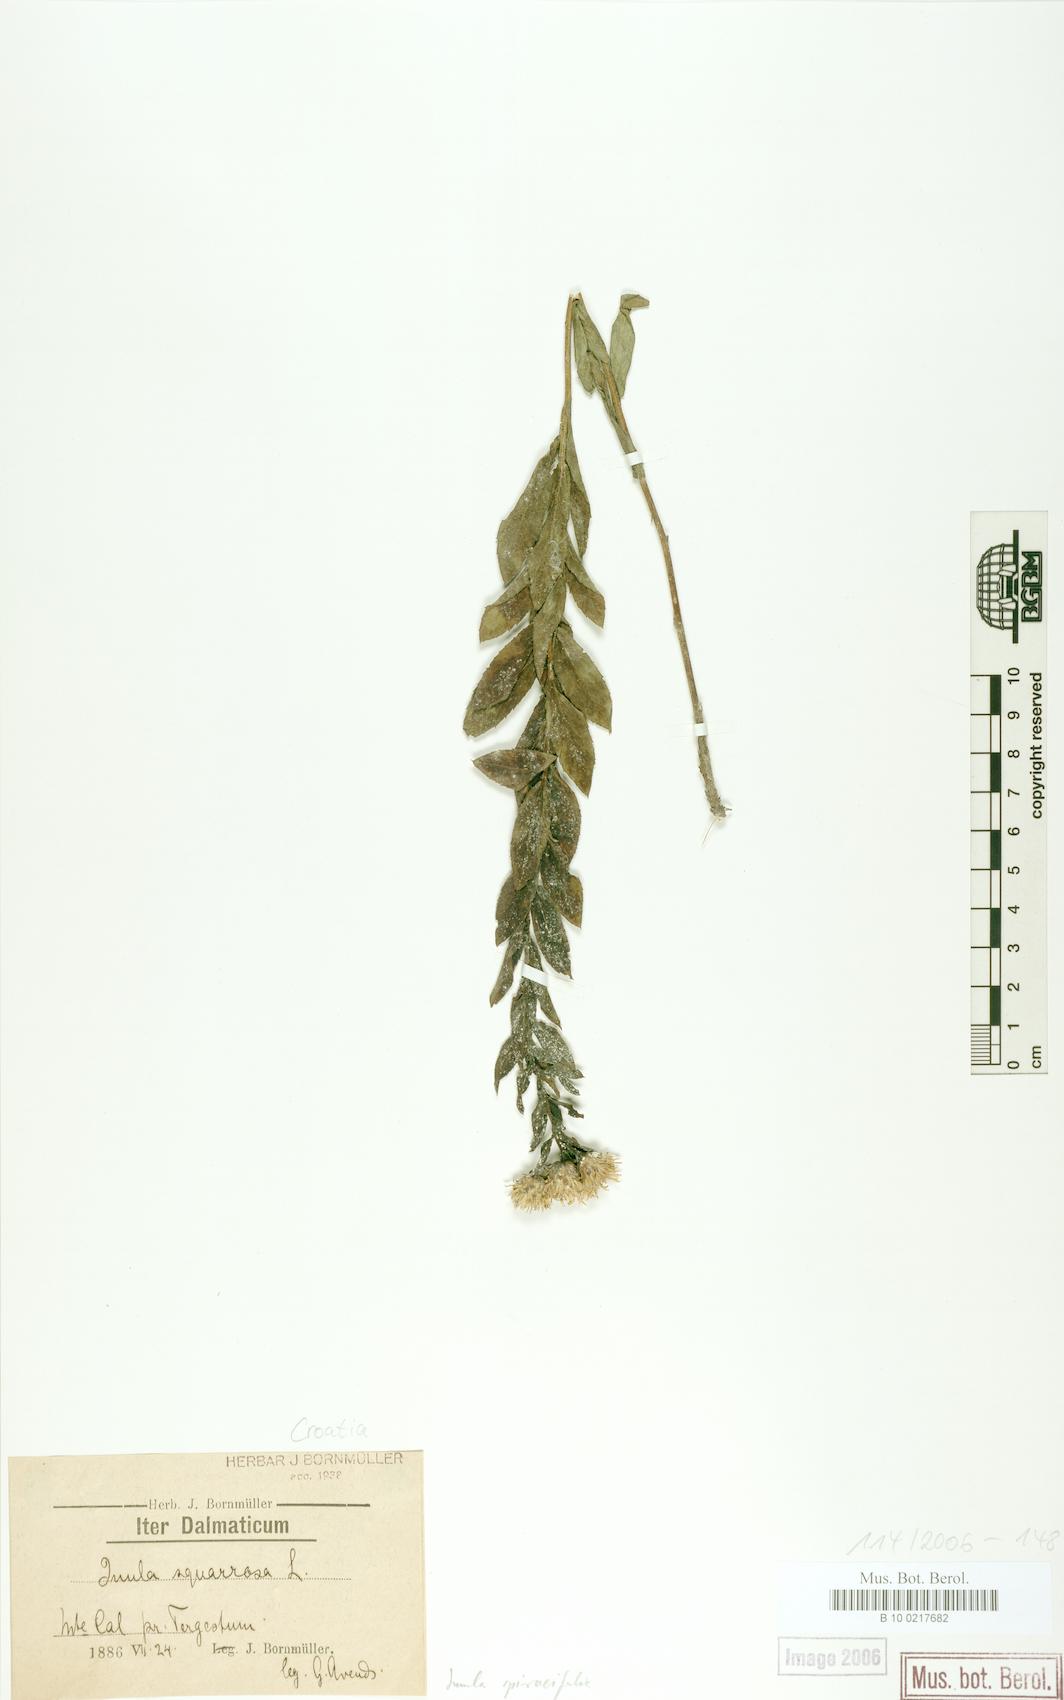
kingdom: Plantae
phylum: Tracheophyta
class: Magnoliopsida
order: Asterales
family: Asteraceae
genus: Pentanema
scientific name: Pentanema spiraeifolium
